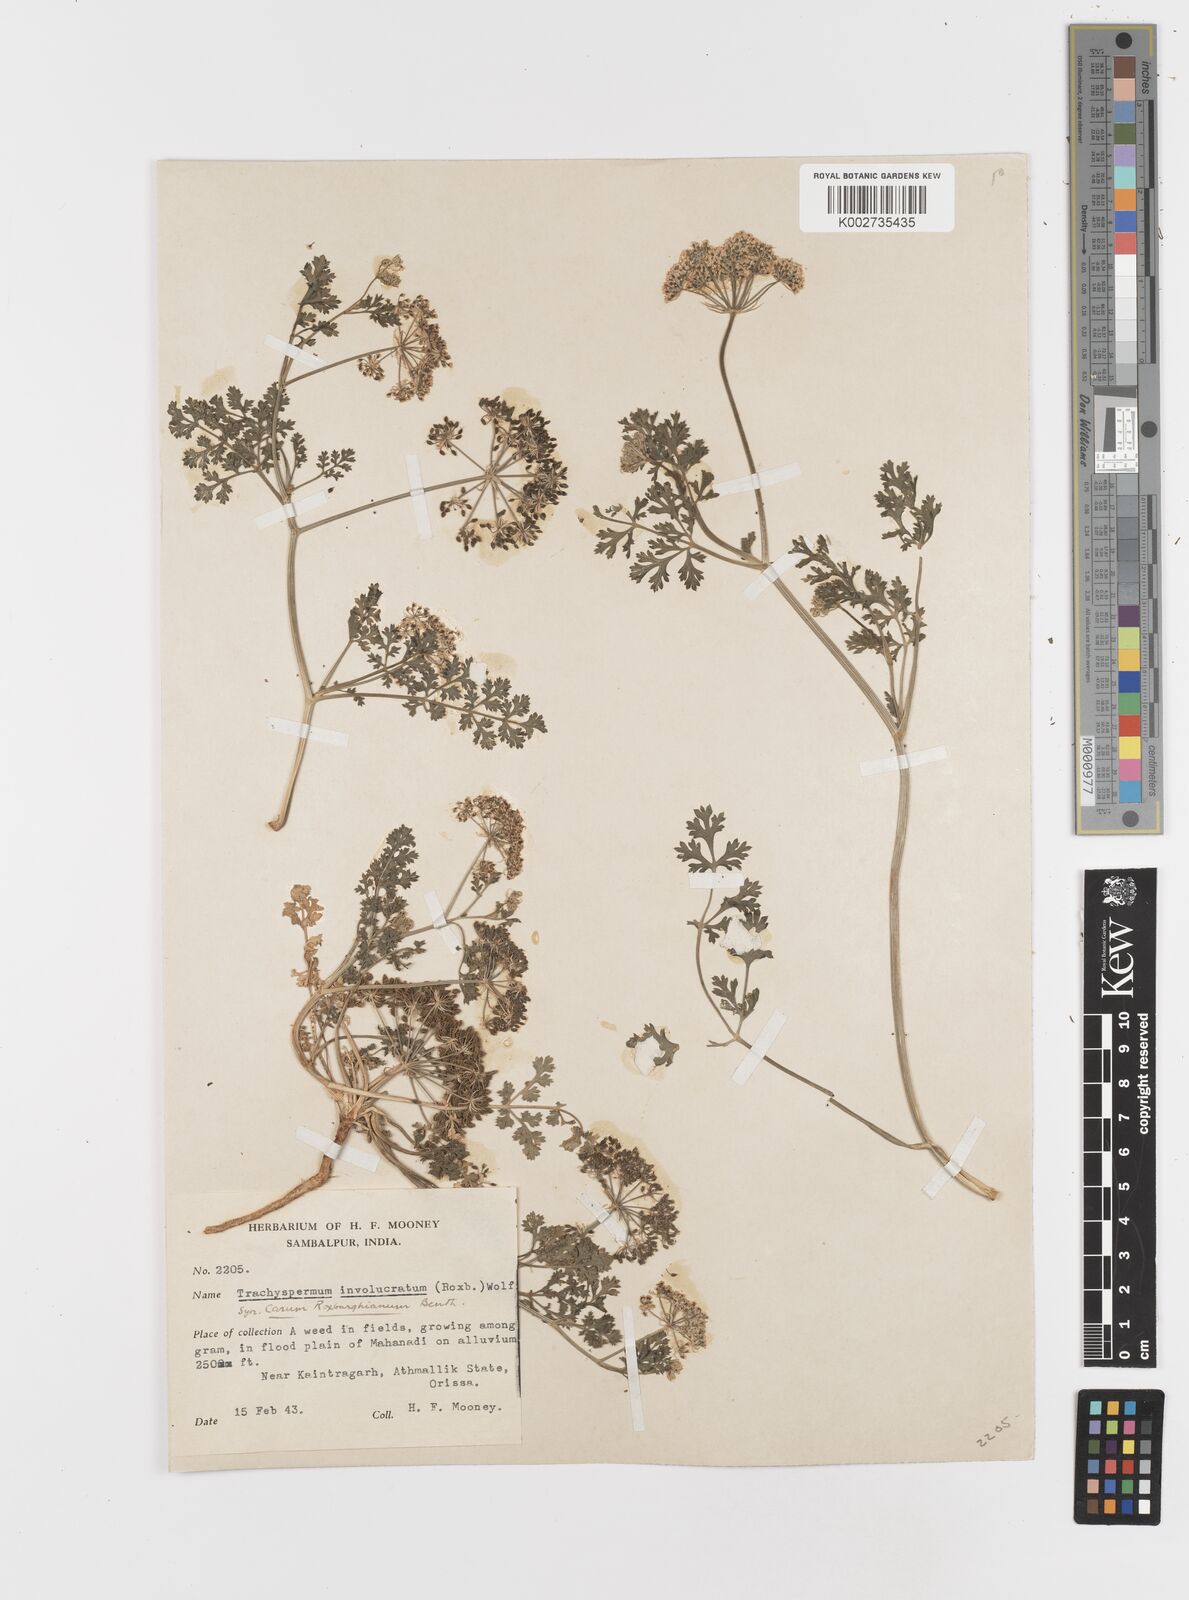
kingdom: Plantae
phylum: Tracheophyta
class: Magnoliopsida
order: Apiales
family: Apiaceae
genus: Psammogeton
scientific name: Psammogeton involucratum
